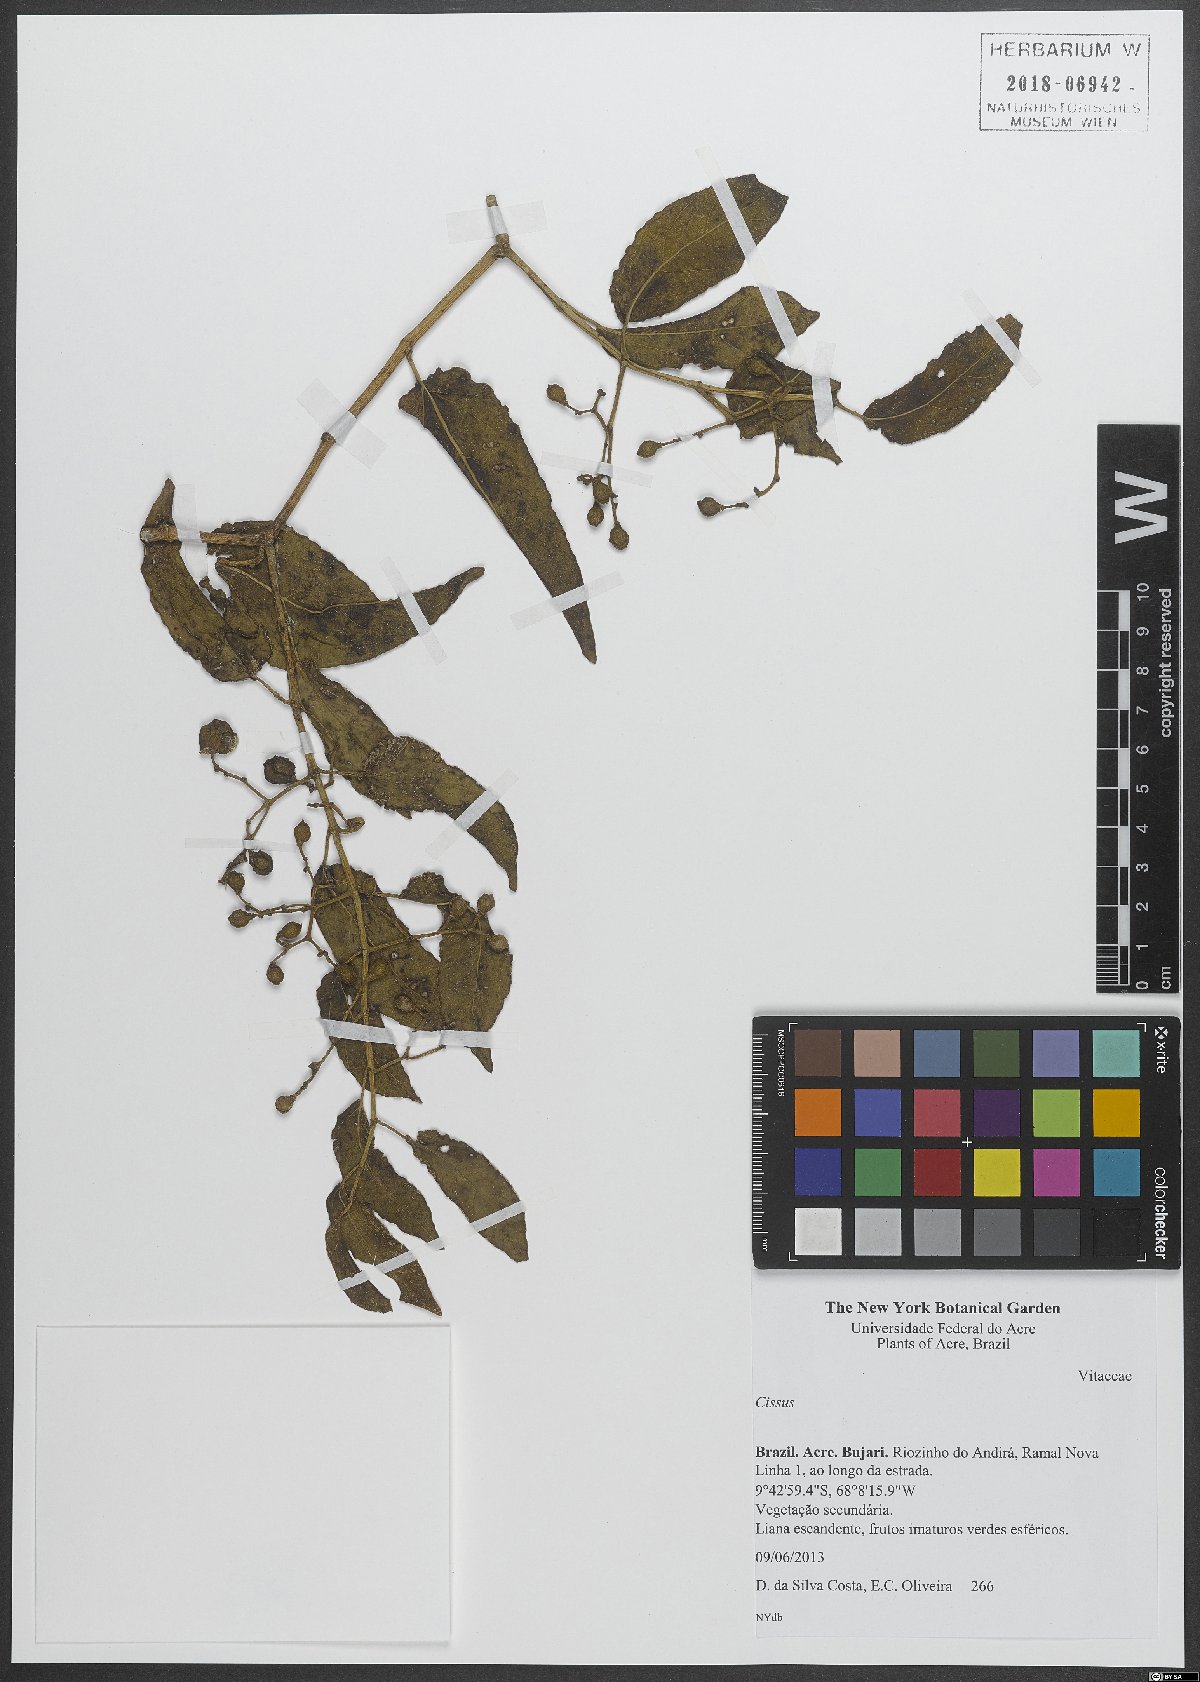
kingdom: Plantae
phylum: Tracheophyta
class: Magnoliopsida
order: Vitales
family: Vitaceae
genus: Cissus
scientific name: Cissus
